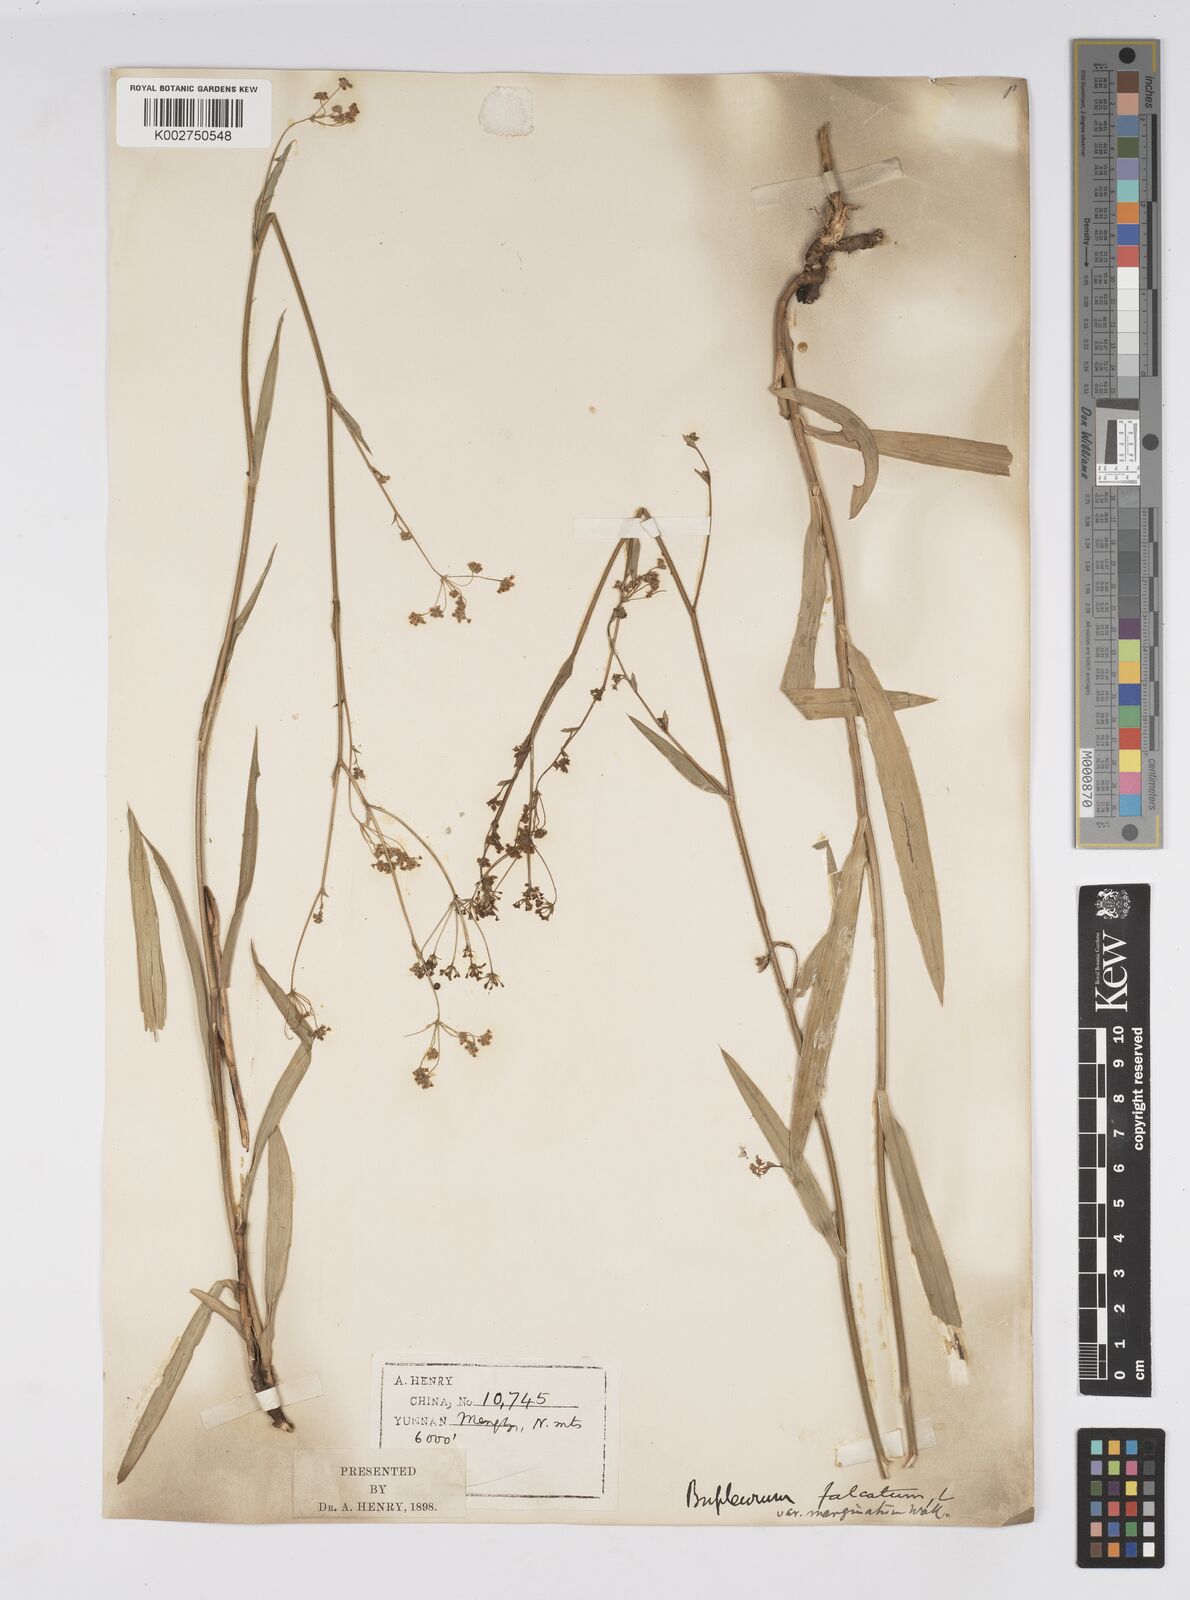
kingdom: Plantae
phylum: Tracheophyta
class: Magnoliopsida
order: Apiales
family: Apiaceae
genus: Bupleurum
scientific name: Bupleurum marginatum
